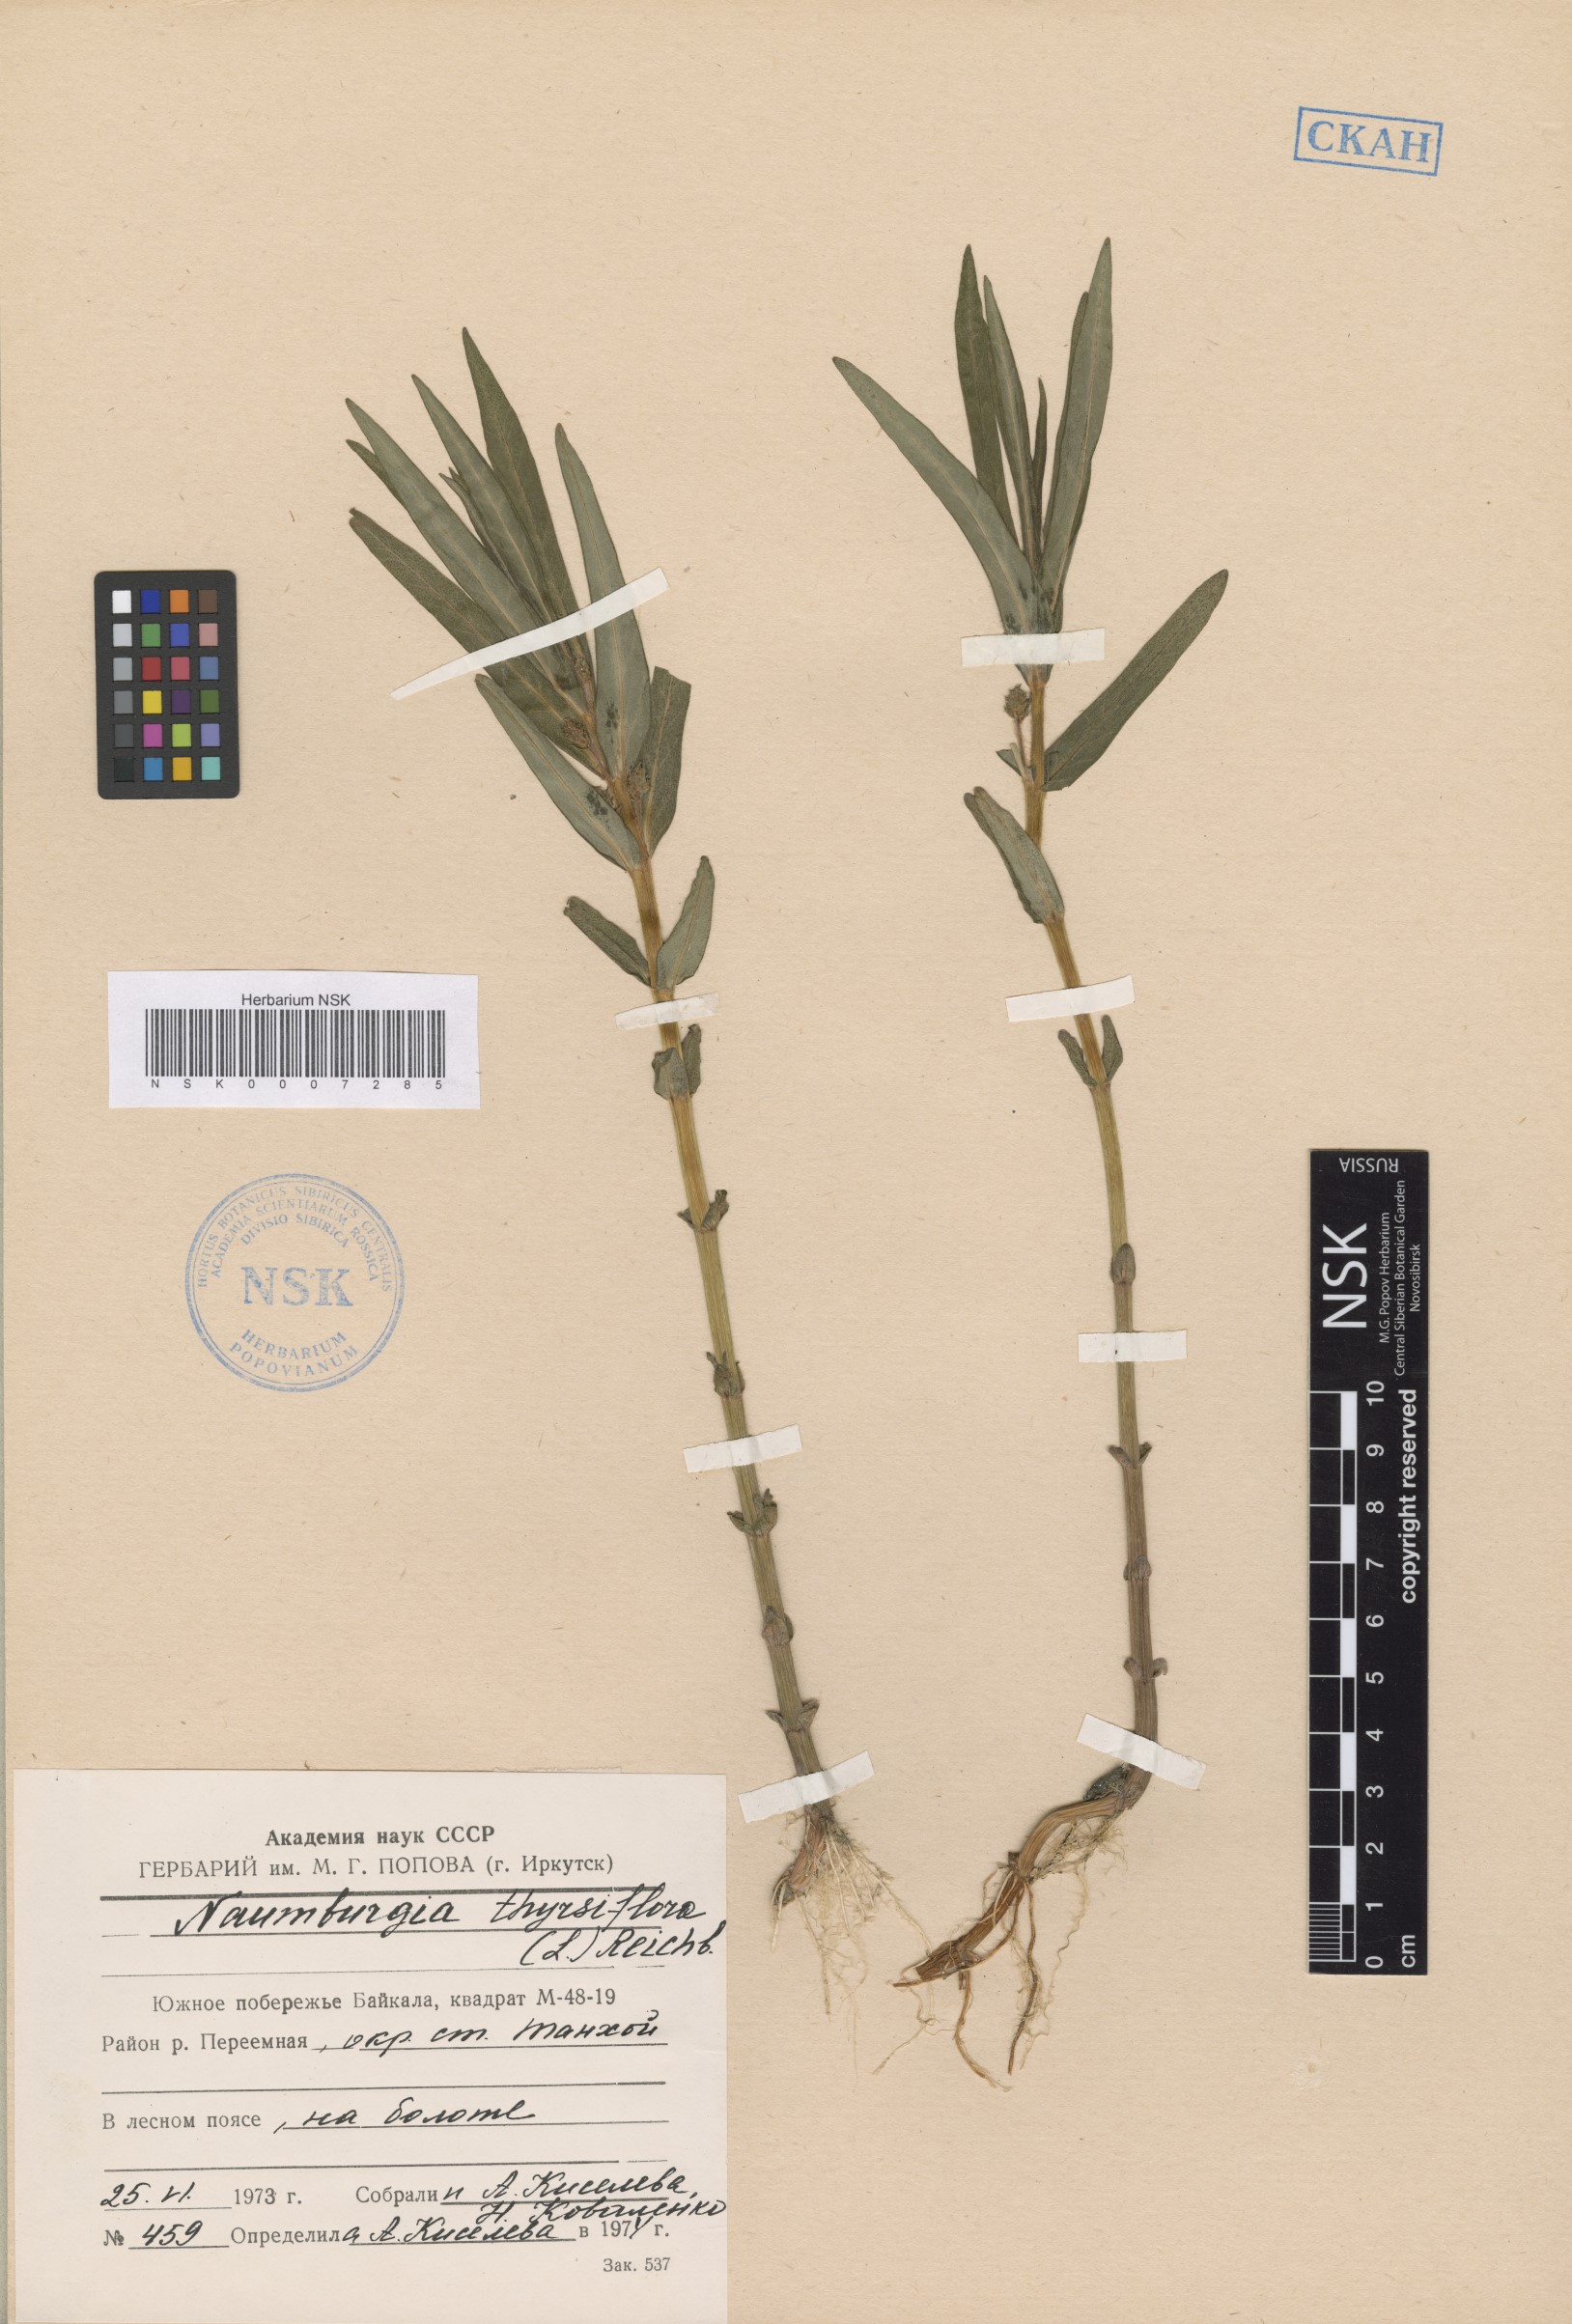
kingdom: Plantae
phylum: Tracheophyta
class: Magnoliopsida
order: Ericales
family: Primulaceae
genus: Lysimachia
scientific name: Lysimachia thyrsiflora
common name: Tufted loosestrife
